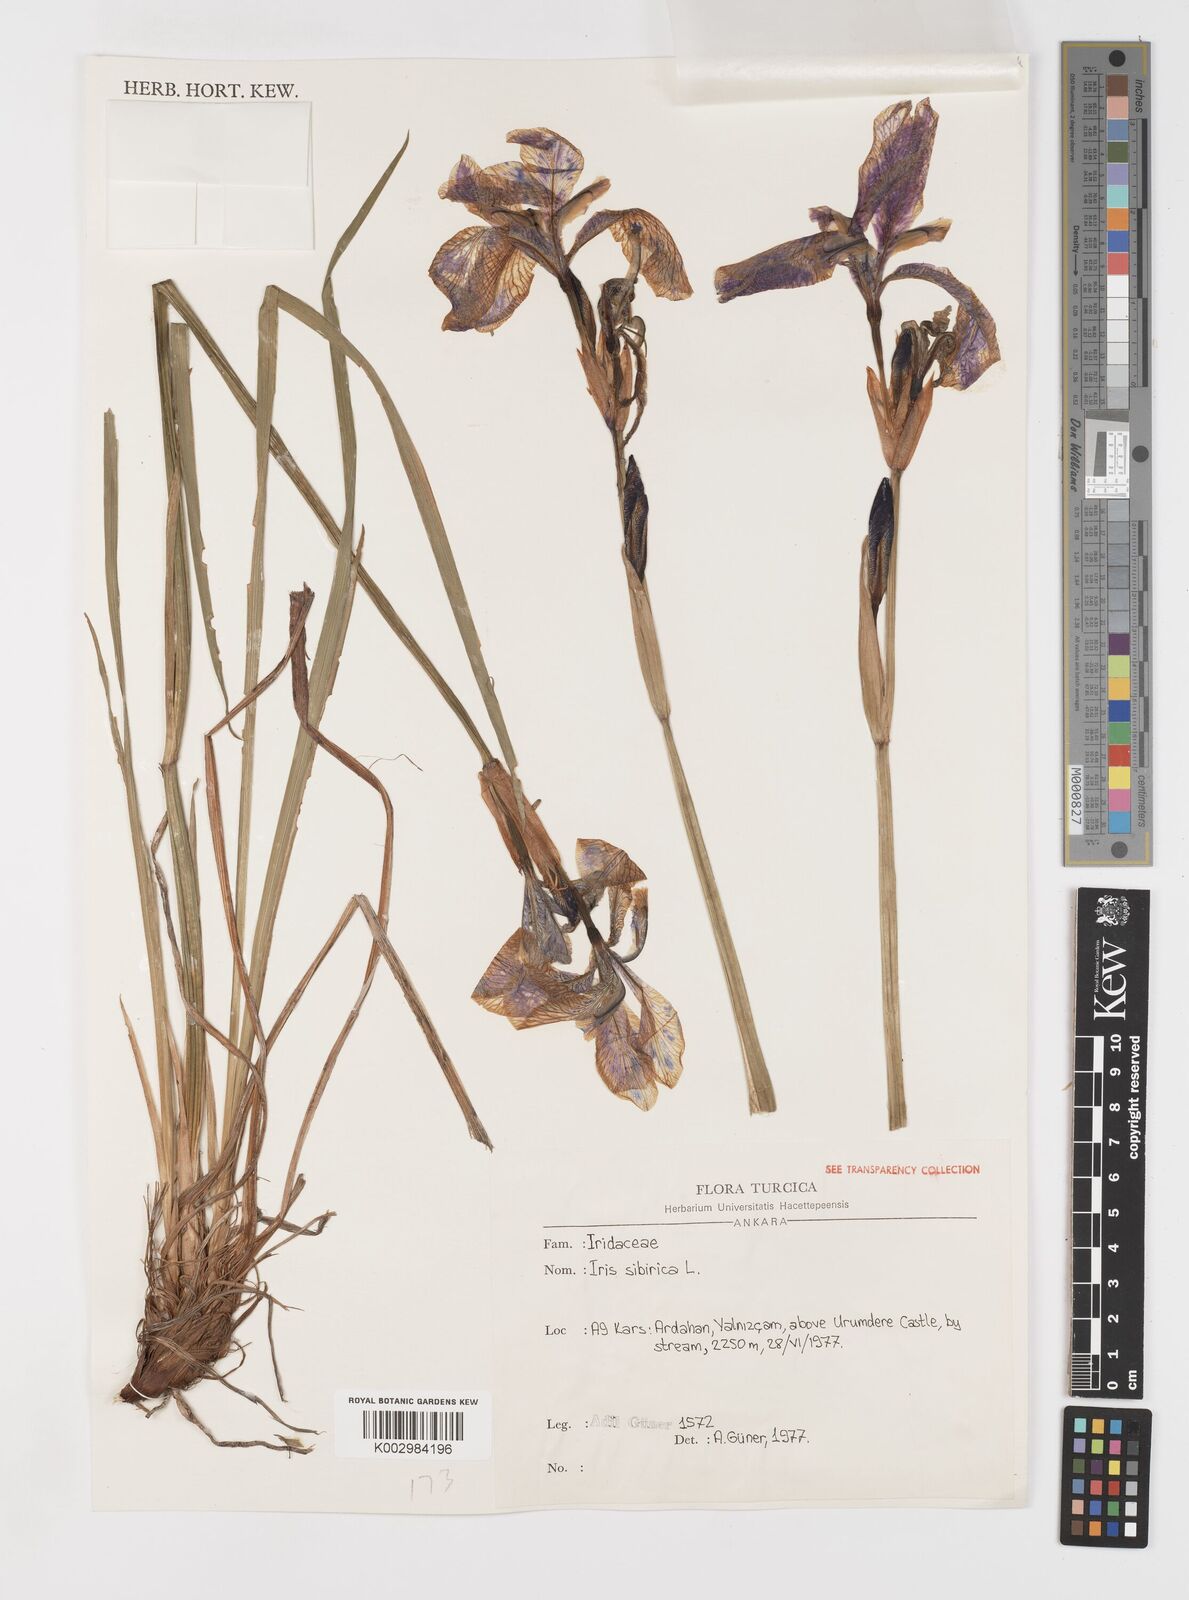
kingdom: Plantae
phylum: Tracheophyta
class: Liliopsida
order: Asparagales
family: Iridaceae
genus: Iris
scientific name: Iris sibirica
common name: Siberian iris
